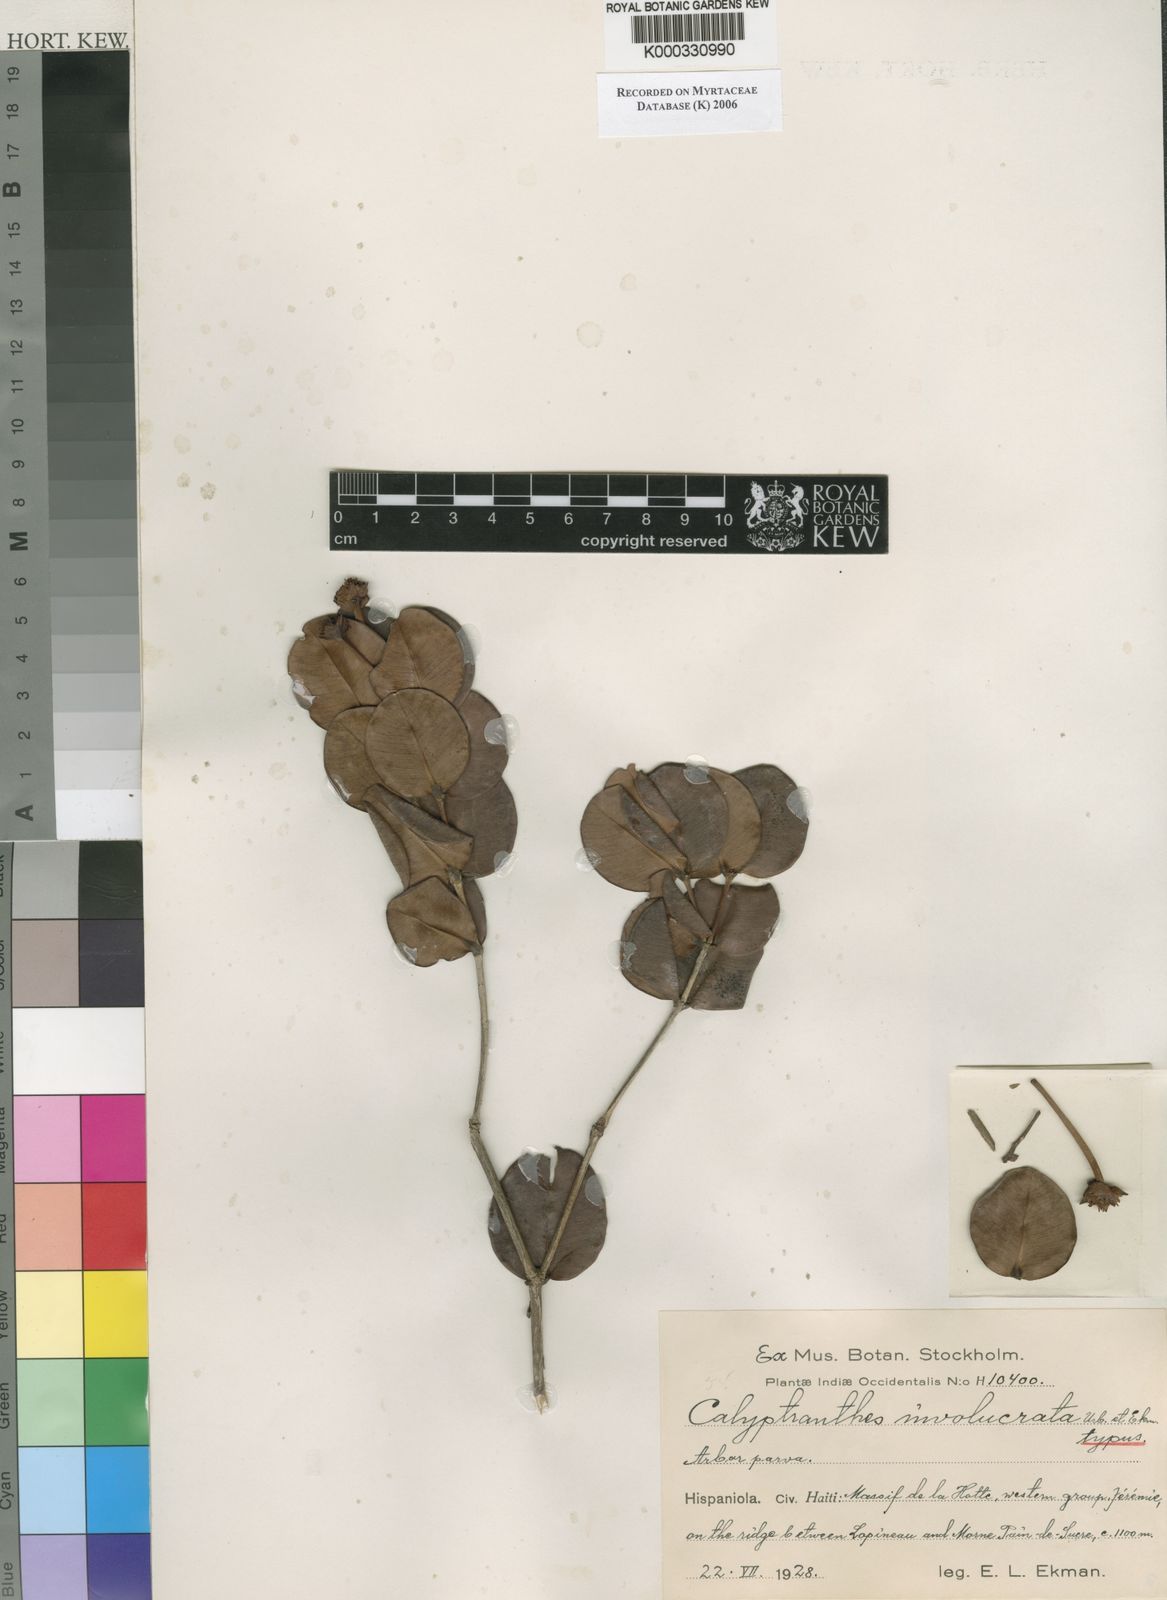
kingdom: Plantae
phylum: Tracheophyta
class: Magnoliopsida
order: Myrtales
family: Myrtaceae
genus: Myrcia
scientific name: Myrcia neoinvolucrata
